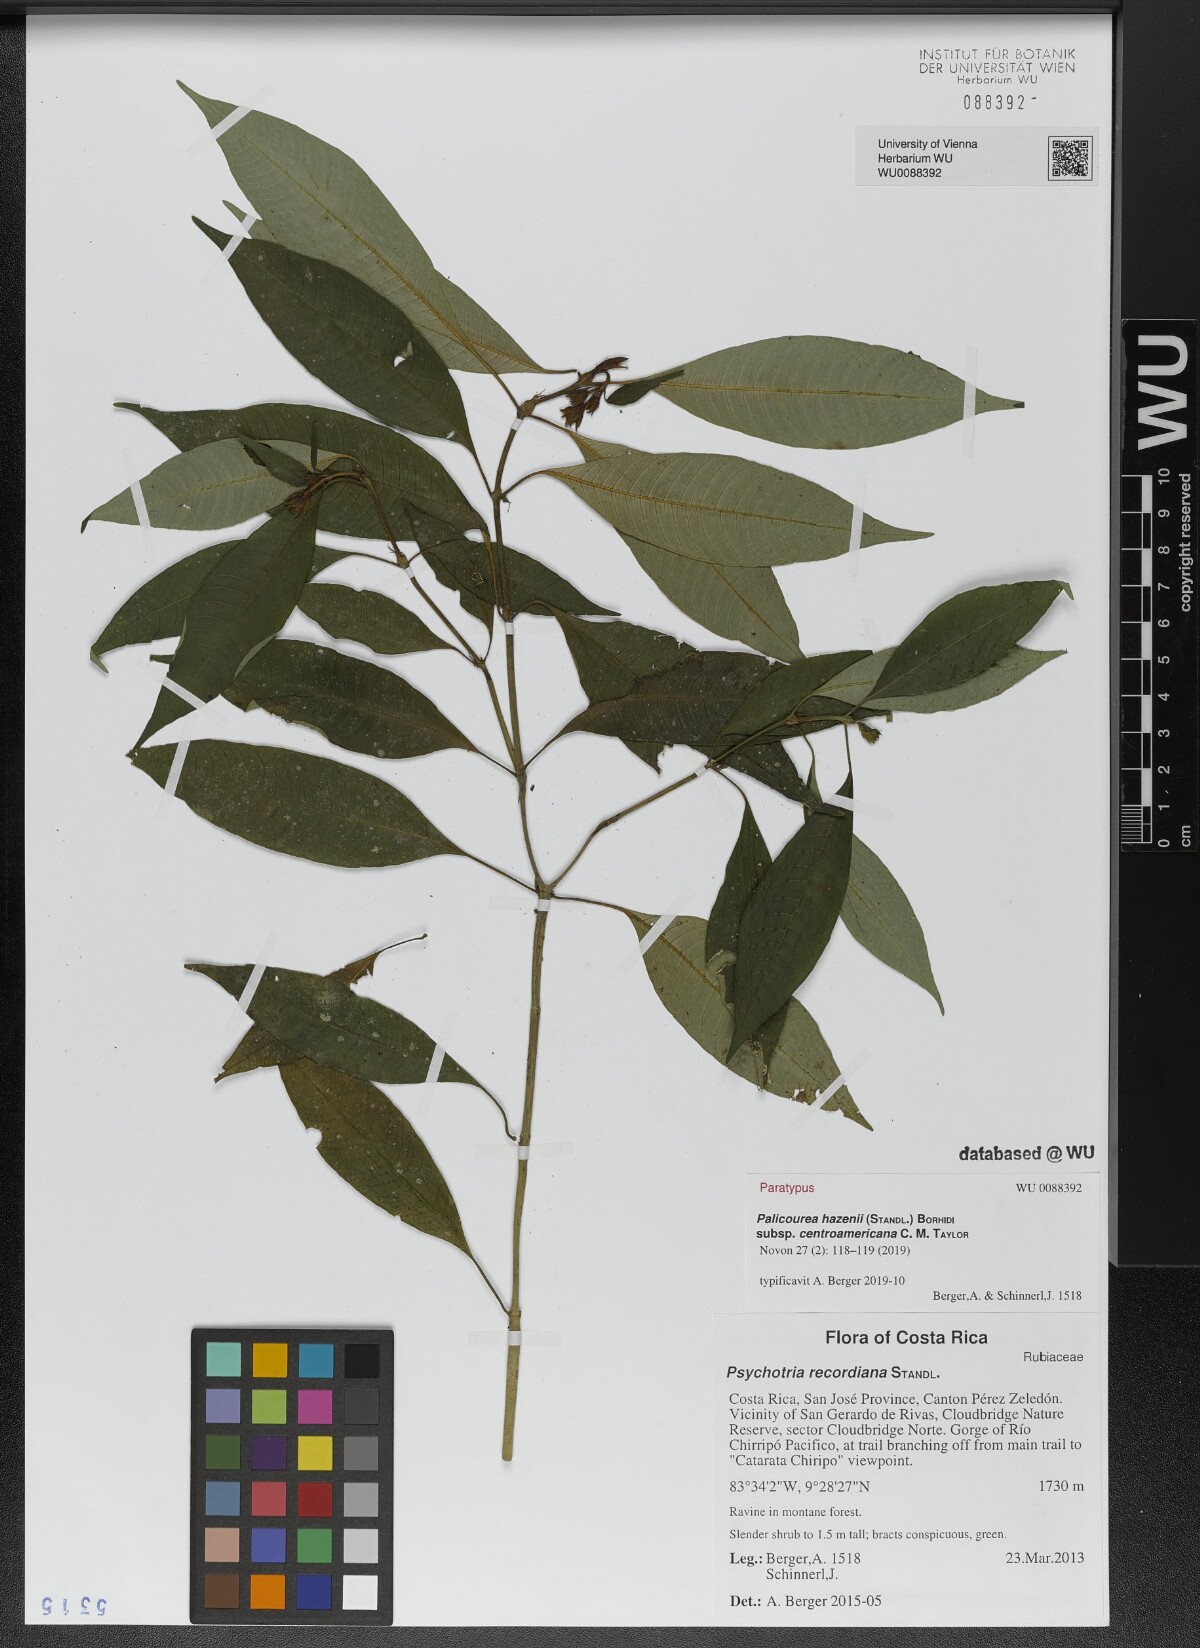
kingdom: Plantae
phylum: Tracheophyta
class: Magnoliopsida
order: Gentianales
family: Rubiaceae
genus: Palicourea
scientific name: Palicourea hazenii
